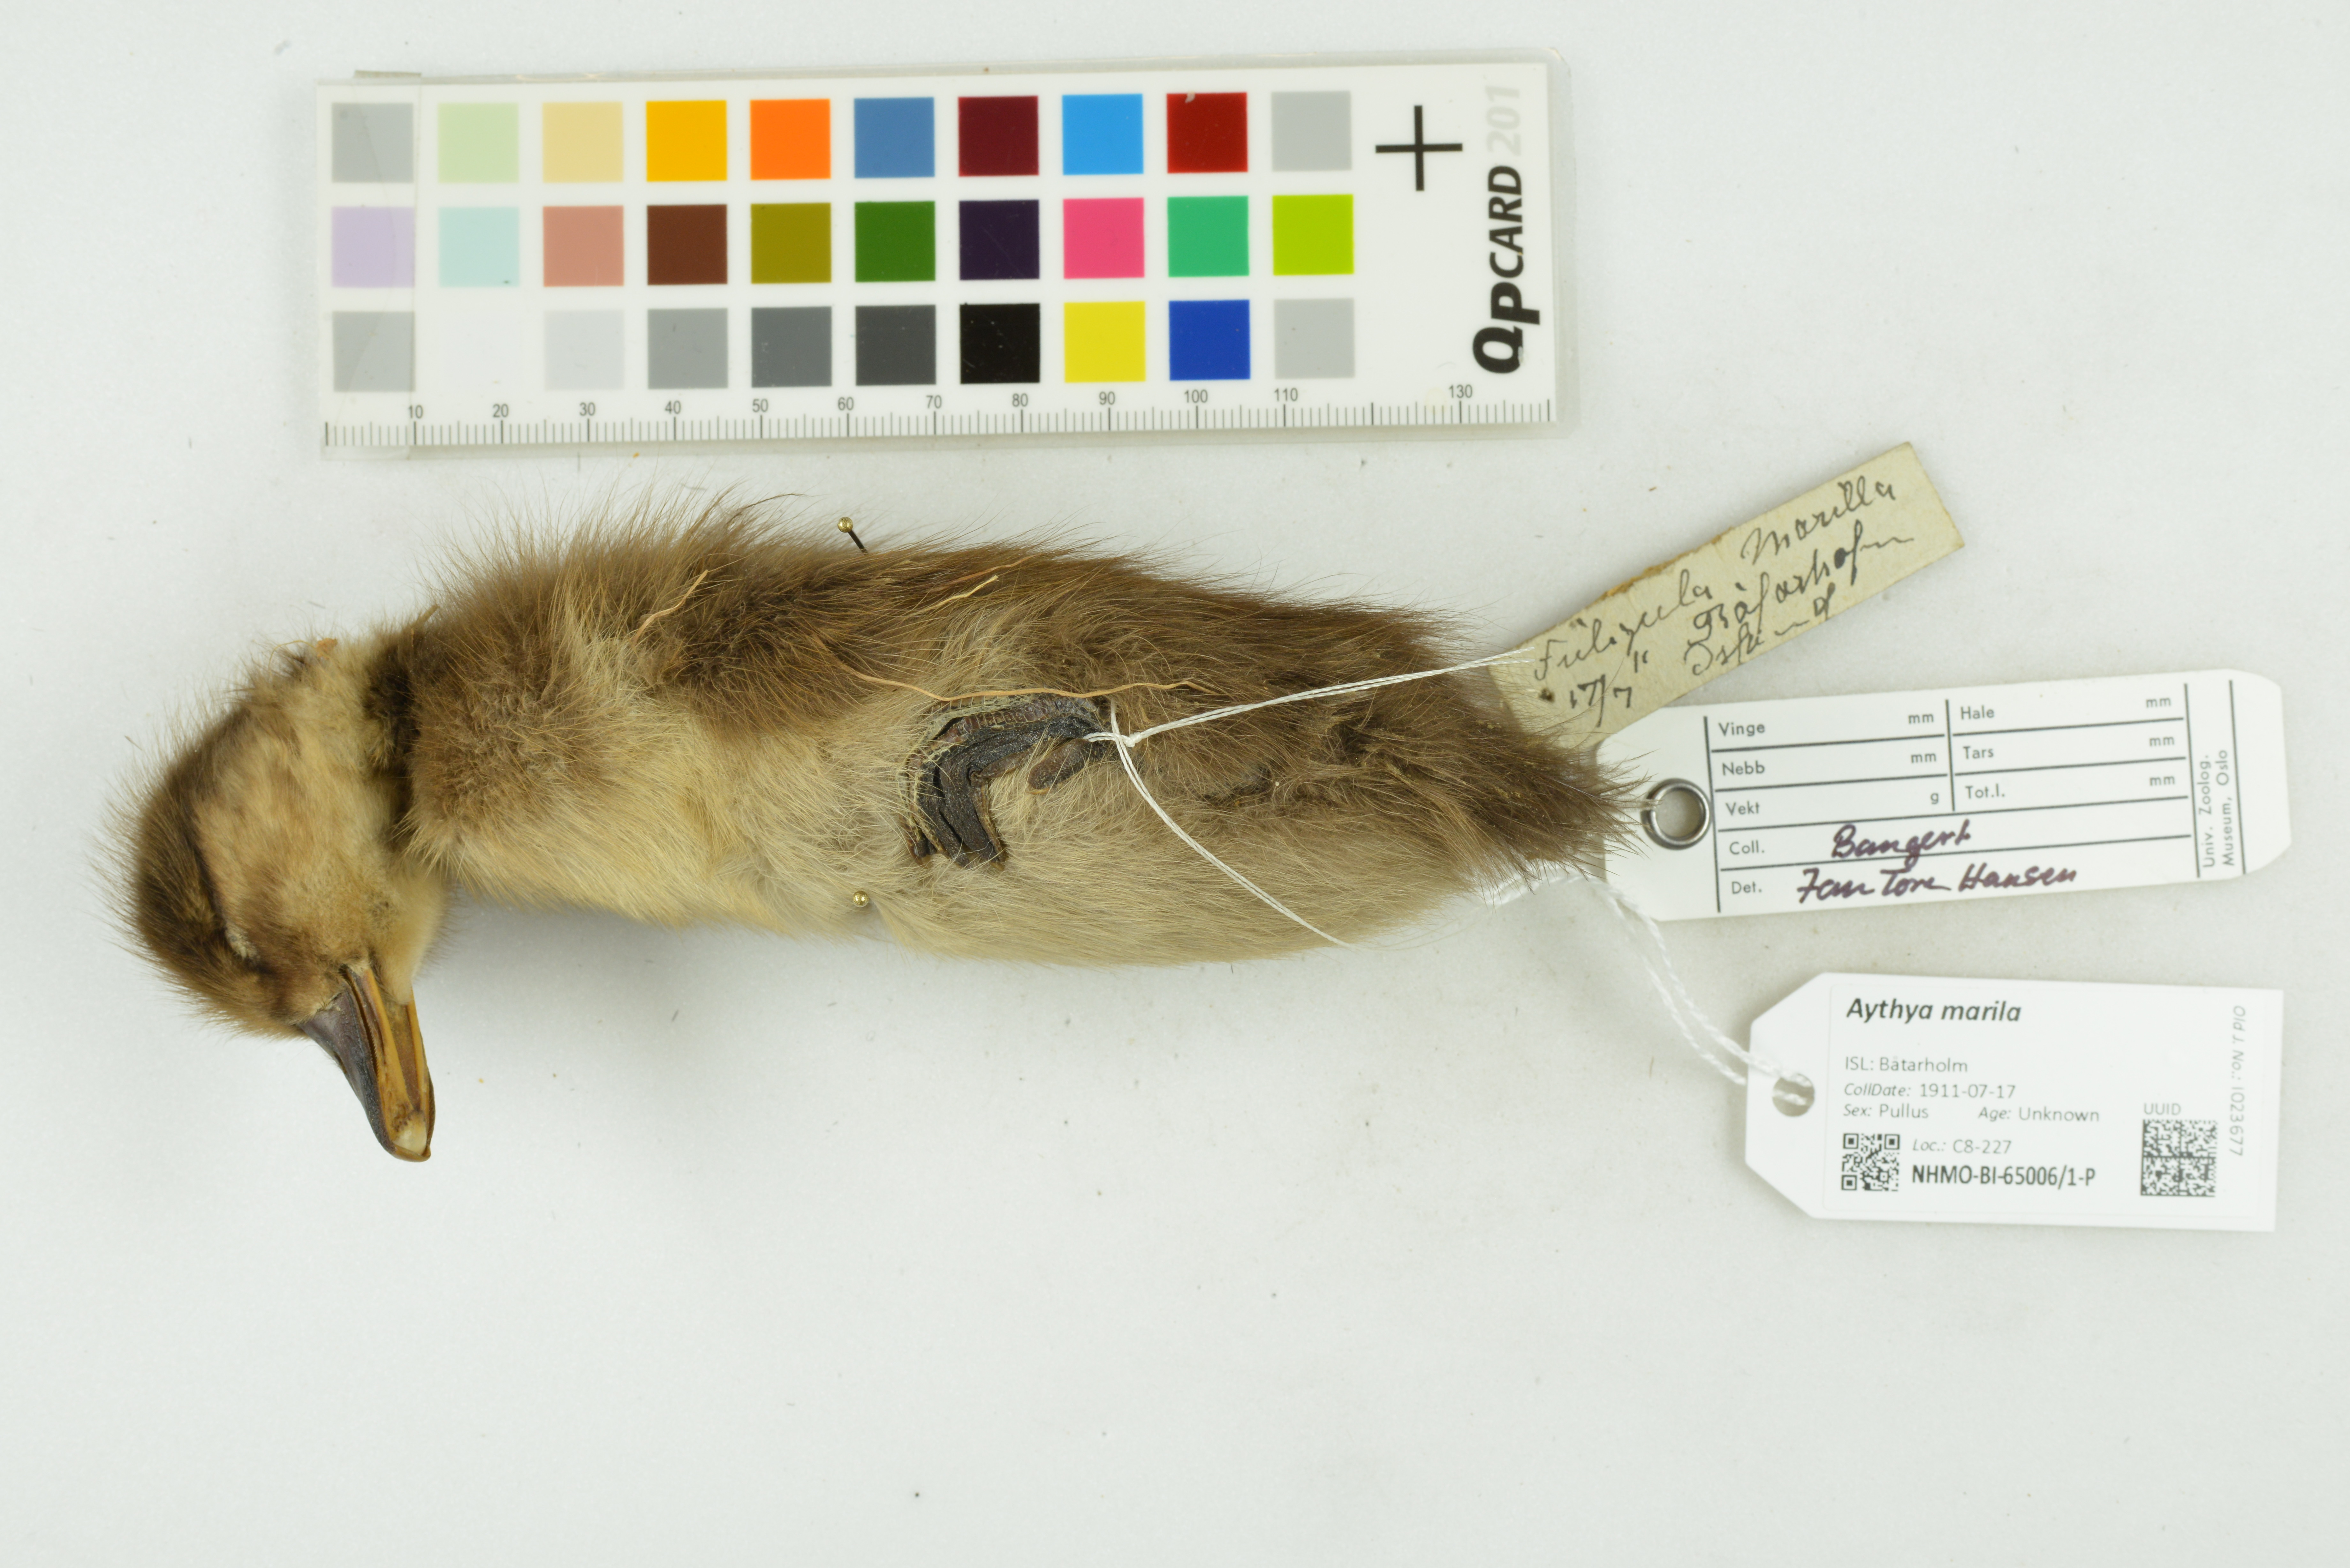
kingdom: Animalia
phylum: Chordata
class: Aves
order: Anseriformes
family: Anatidae
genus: Aythya
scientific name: Aythya marila
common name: Greater scaup
